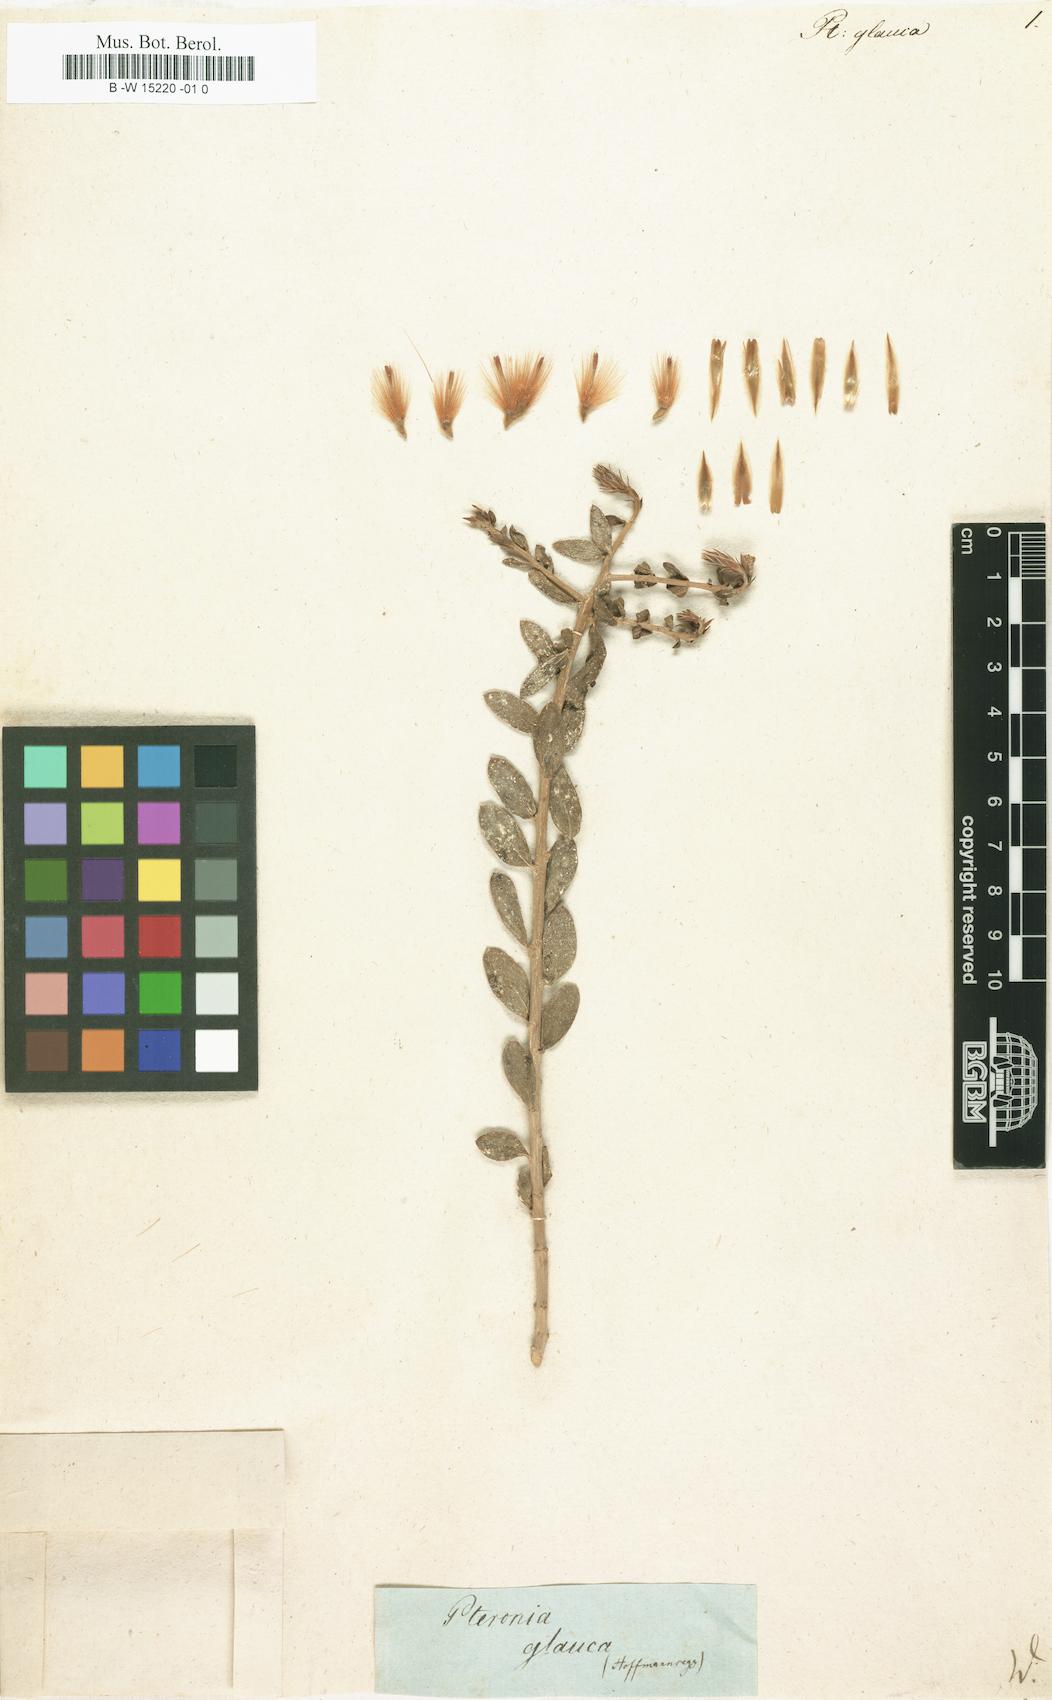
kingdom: Plantae
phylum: Tracheophyta
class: Magnoliopsida
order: Asterales
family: Asteraceae
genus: Pteronia
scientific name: Pteronia glauca
